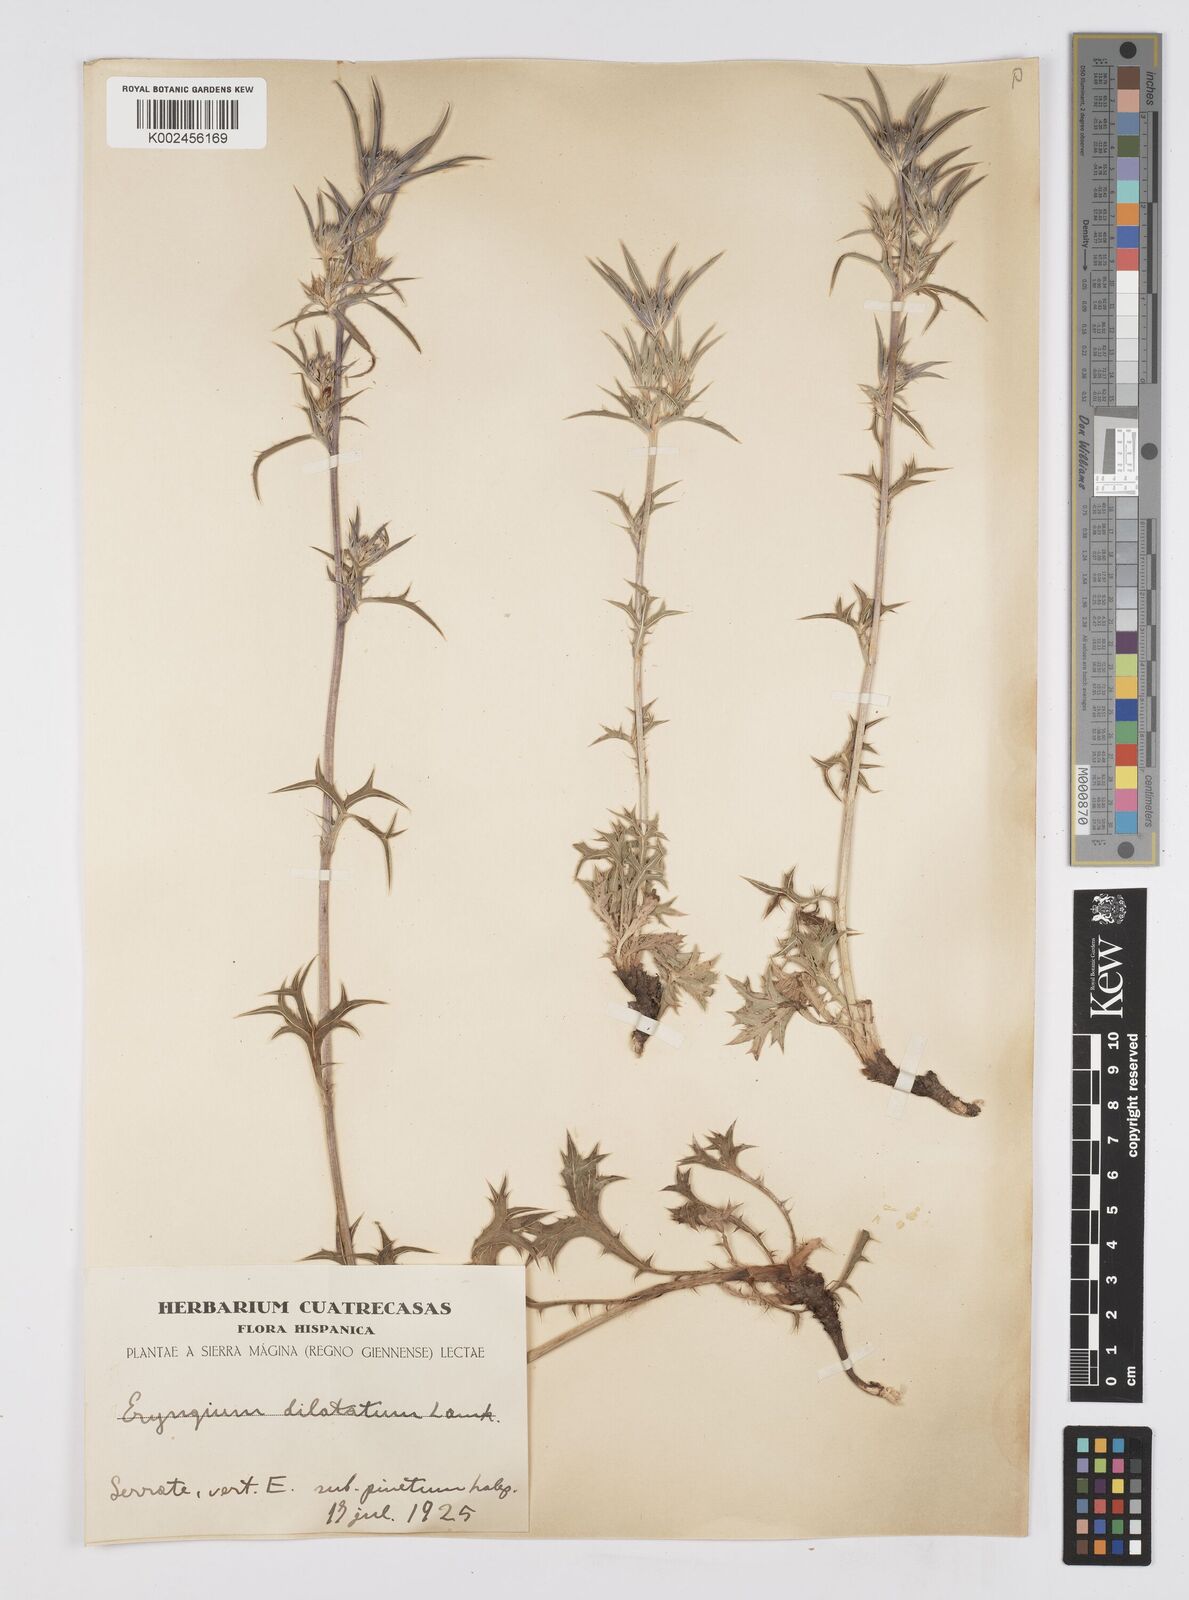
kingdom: Plantae
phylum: Tracheophyta
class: Magnoliopsida
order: Apiales
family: Apiaceae
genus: Eryngium
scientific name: Eryngium dilatatum
